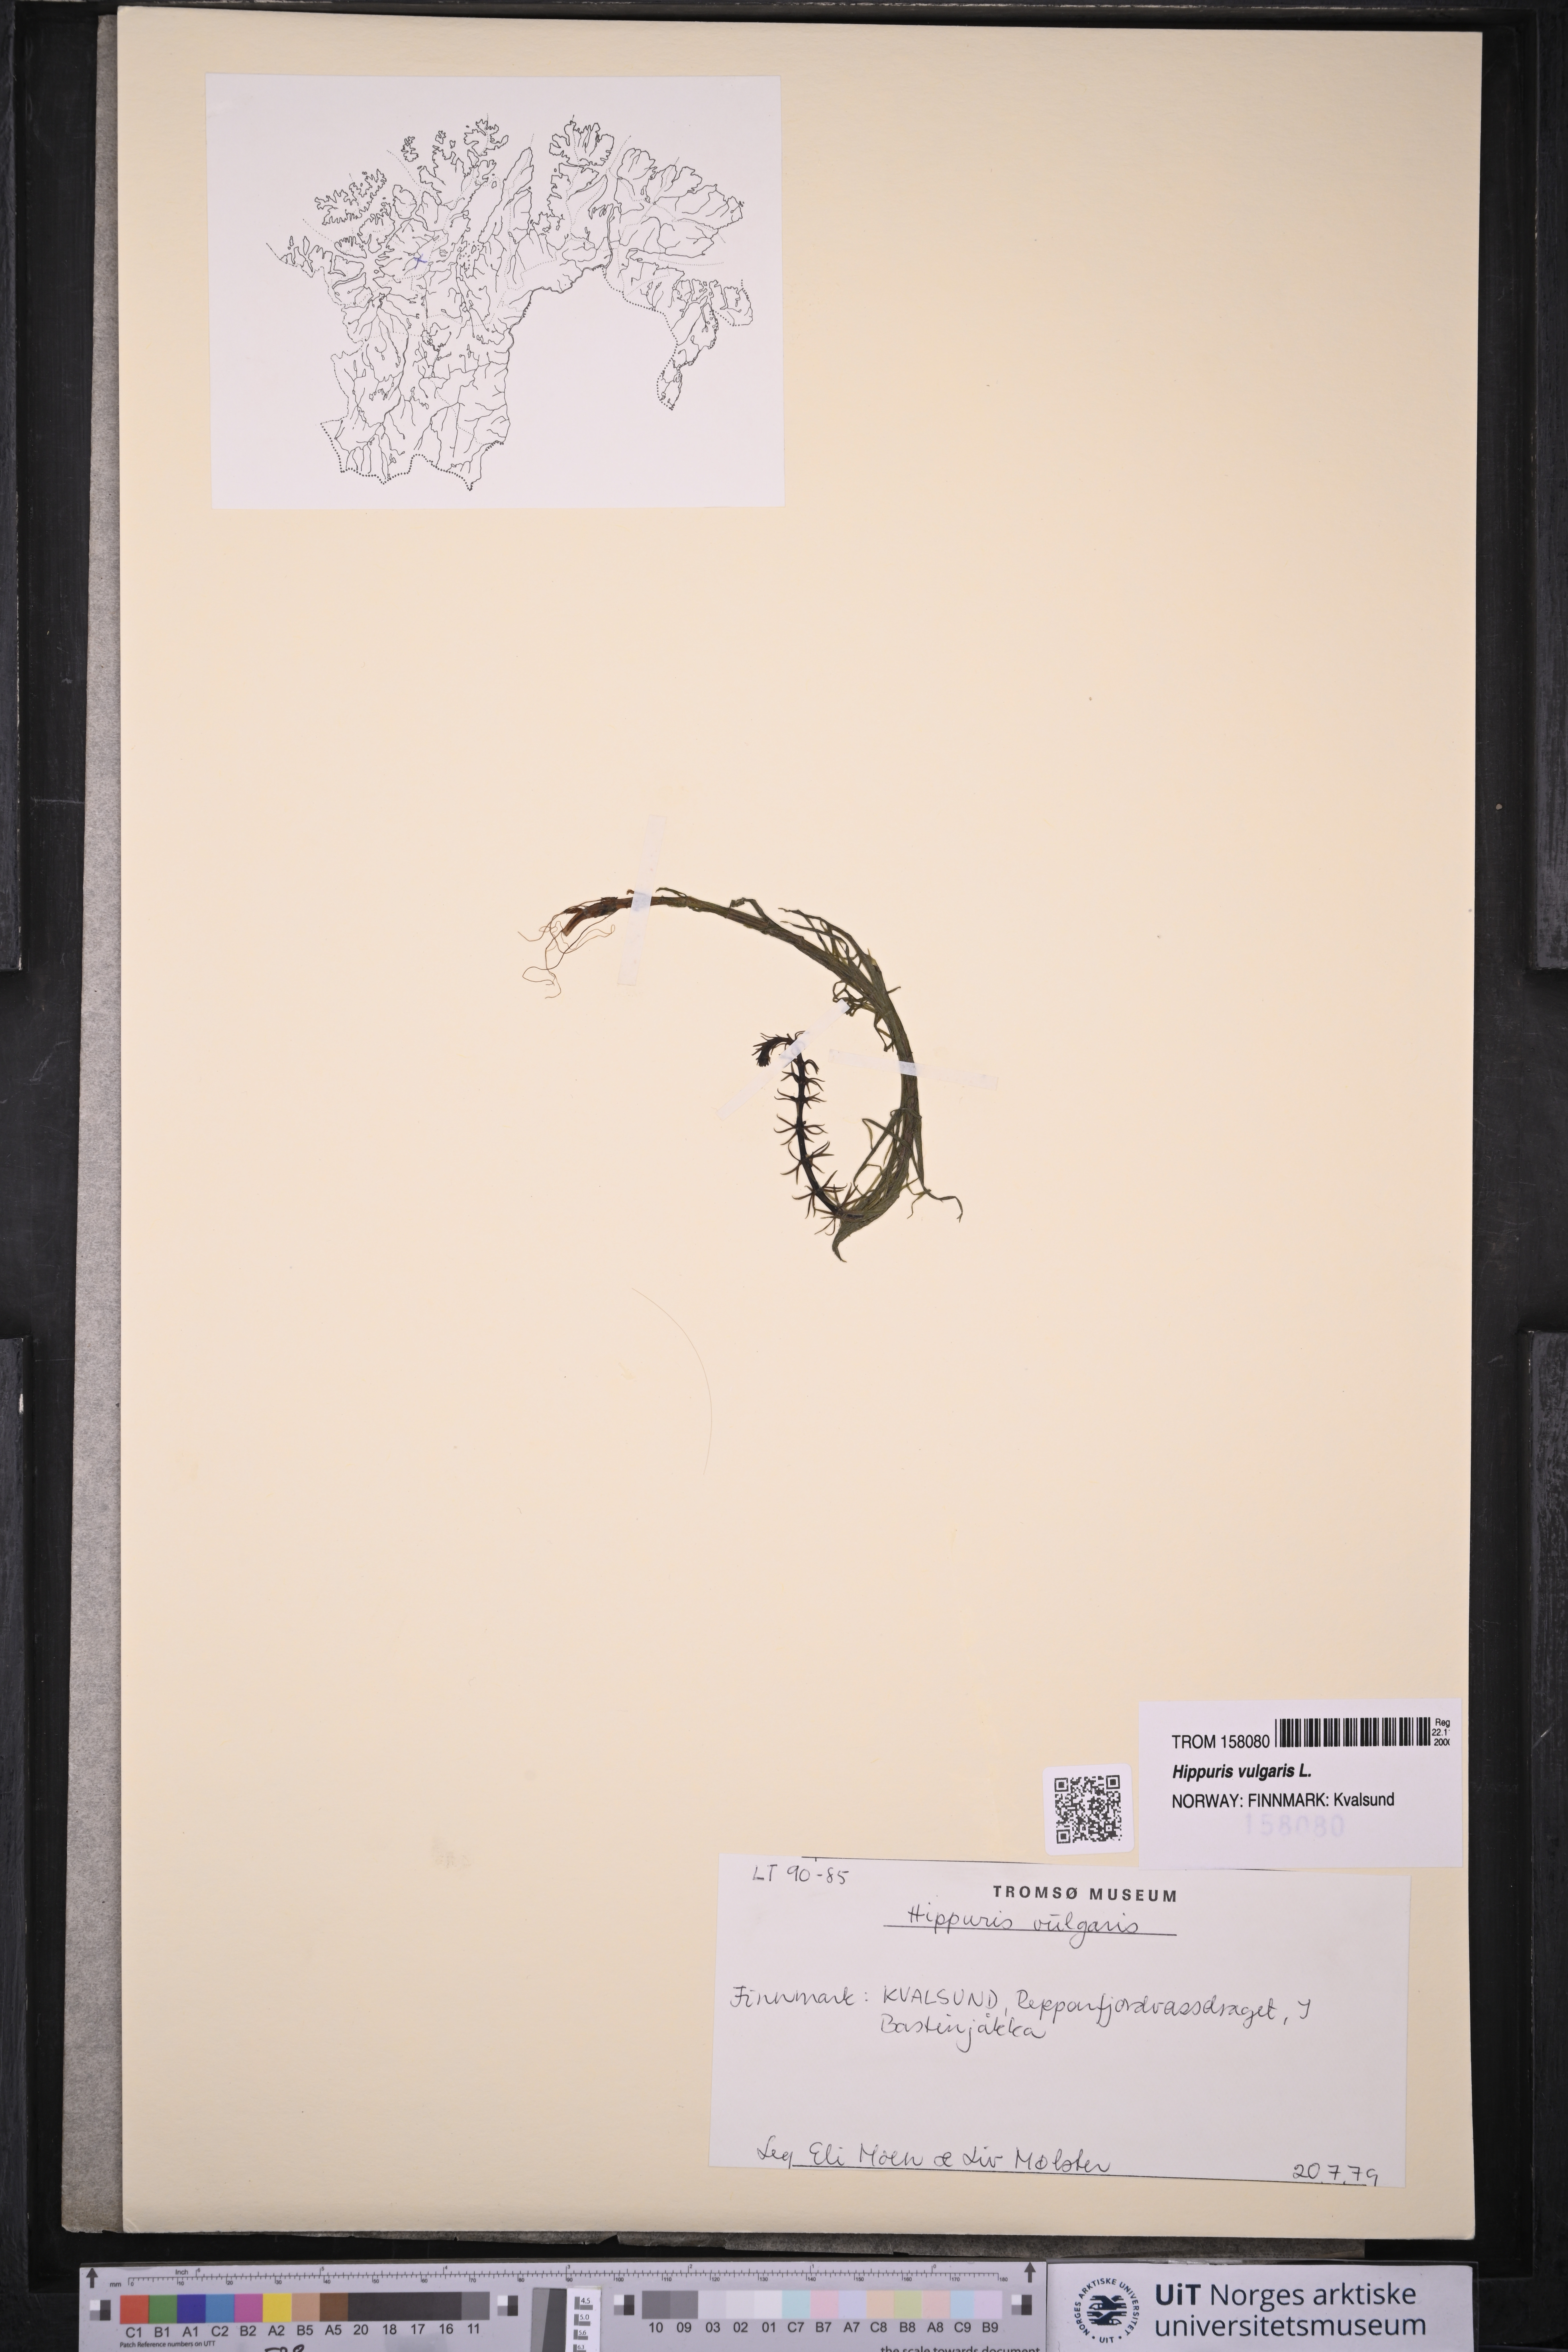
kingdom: Plantae
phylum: Tracheophyta
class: Magnoliopsida
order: Lamiales
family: Plantaginaceae
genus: Hippuris
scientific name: Hippuris vulgaris
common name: Mare's-tail
